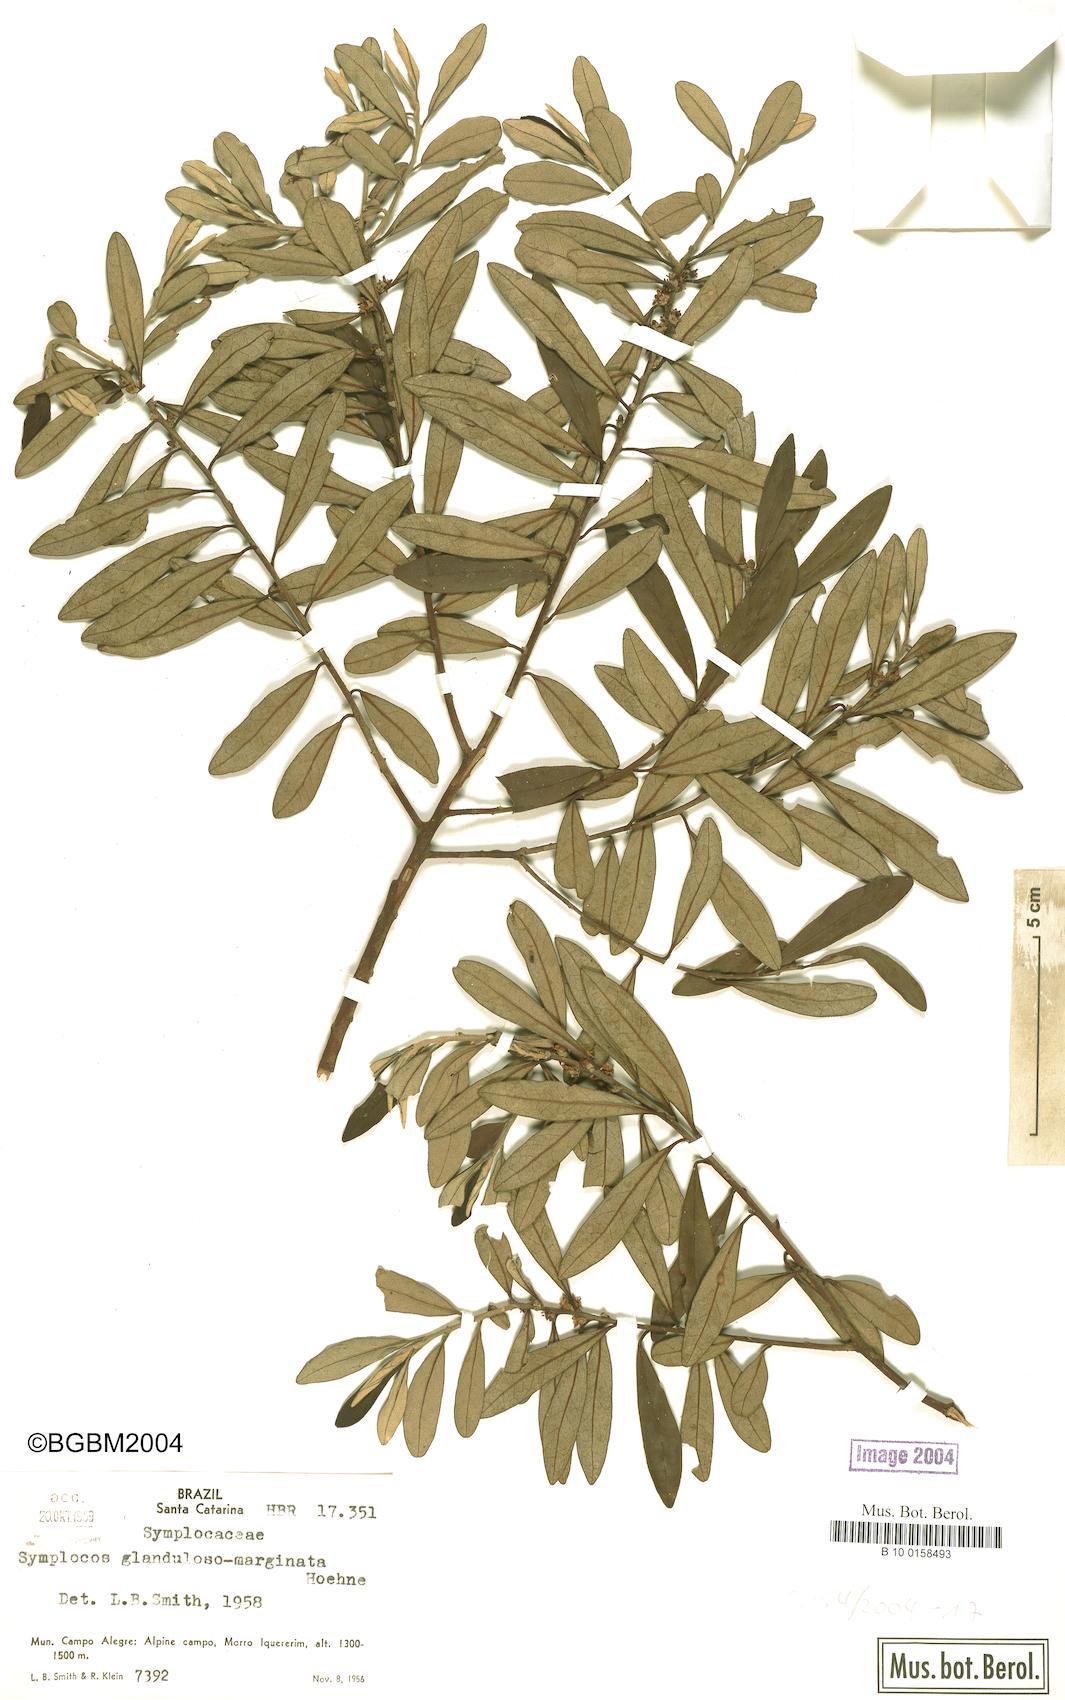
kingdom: Plantae
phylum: Tracheophyta
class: Magnoliopsida
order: Ericales
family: Symplocaceae
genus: Symplocos
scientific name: Symplocos glandulosomarginata
